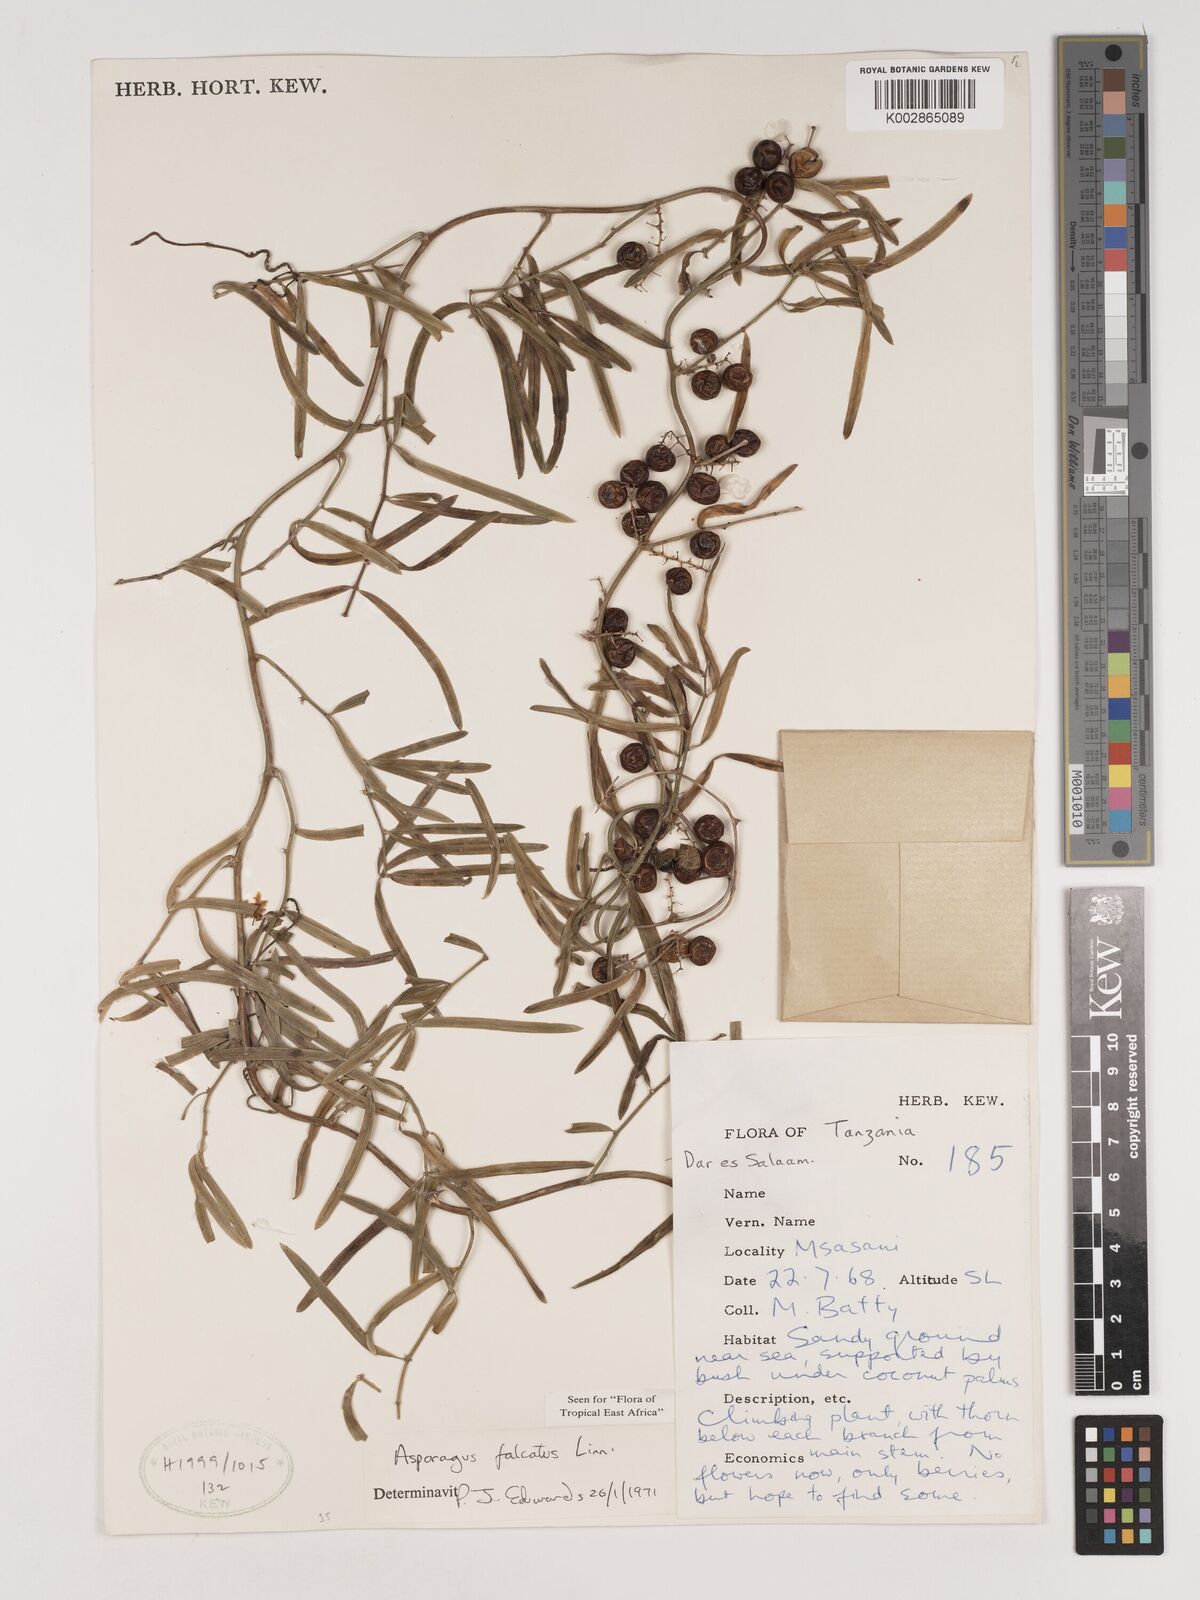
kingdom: Plantae
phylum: Tracheophyta
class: Liliopsida
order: Asparagales
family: Asparagaceae
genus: Asparagus
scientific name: Asparagus falcatus
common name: Asparagus
